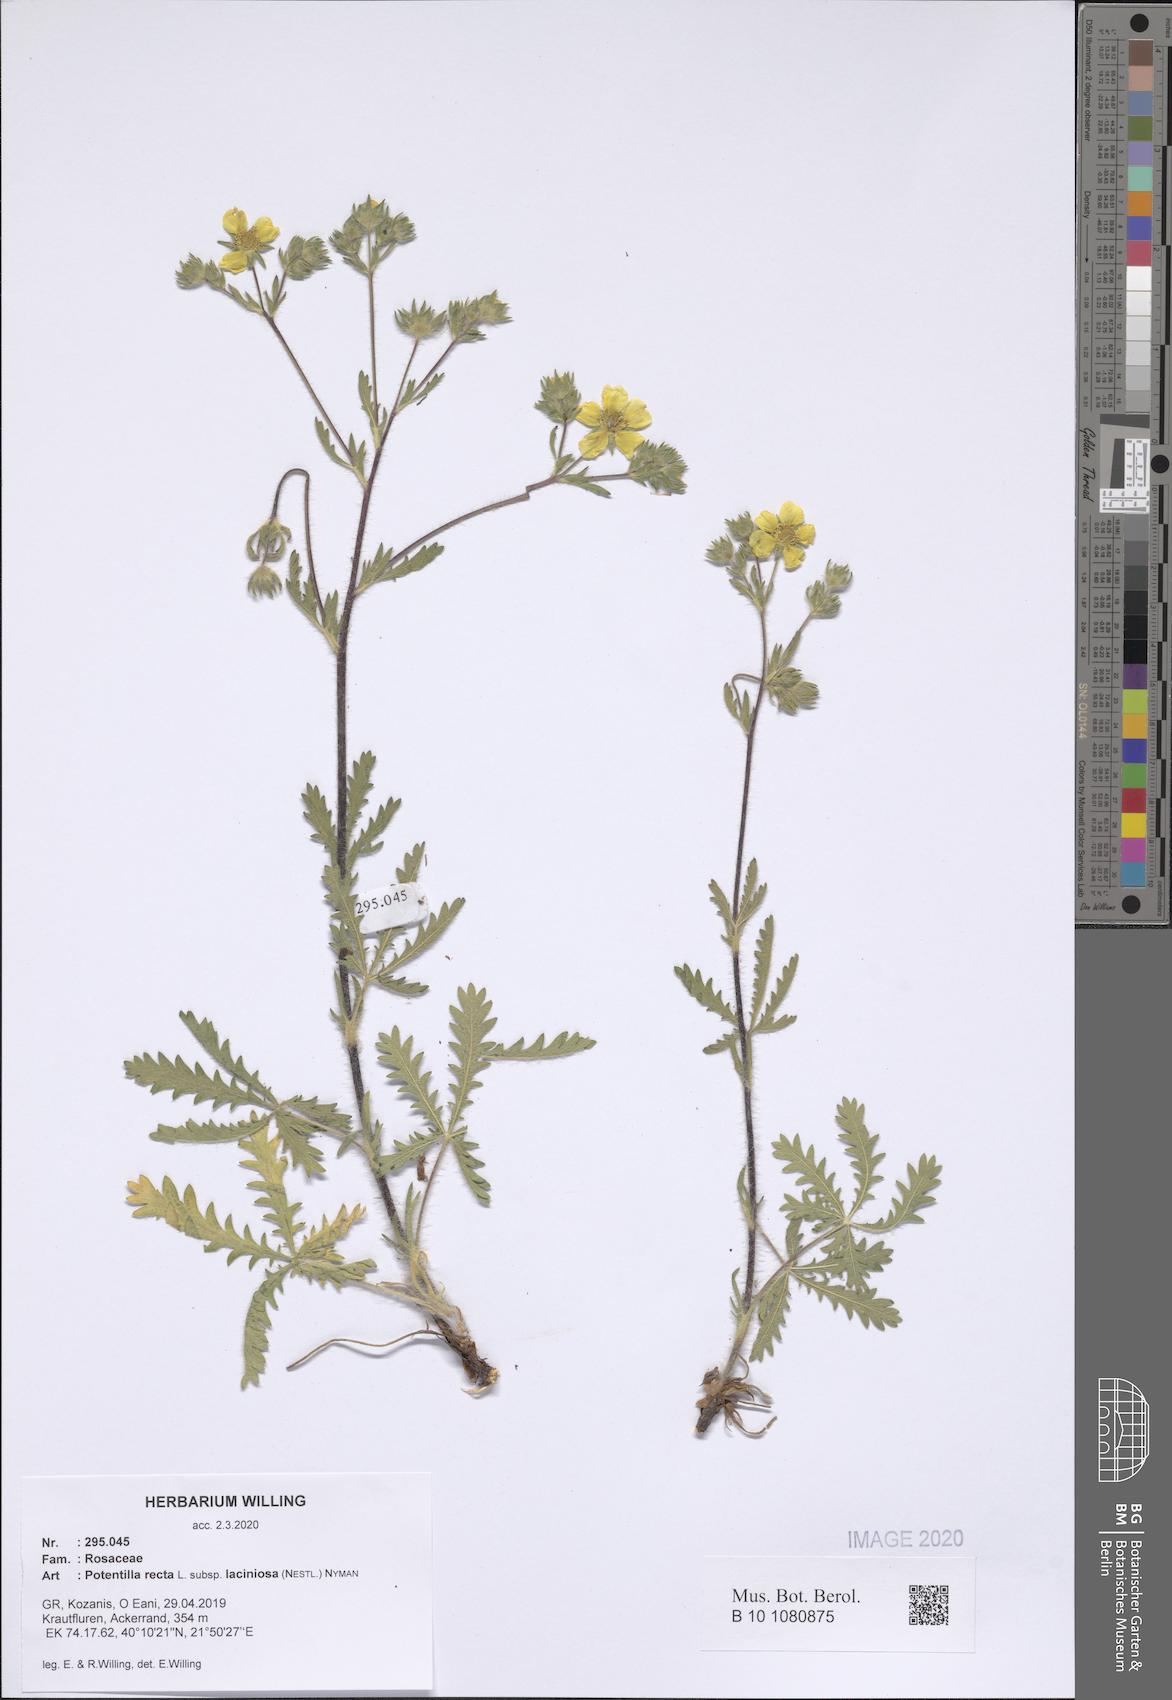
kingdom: Plantae
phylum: Tracheophyta
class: Magnoliopsida
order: Rosales
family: Rosaceae
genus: Potentilla
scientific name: Potentilla recta
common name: Sulphur cinquefoil
